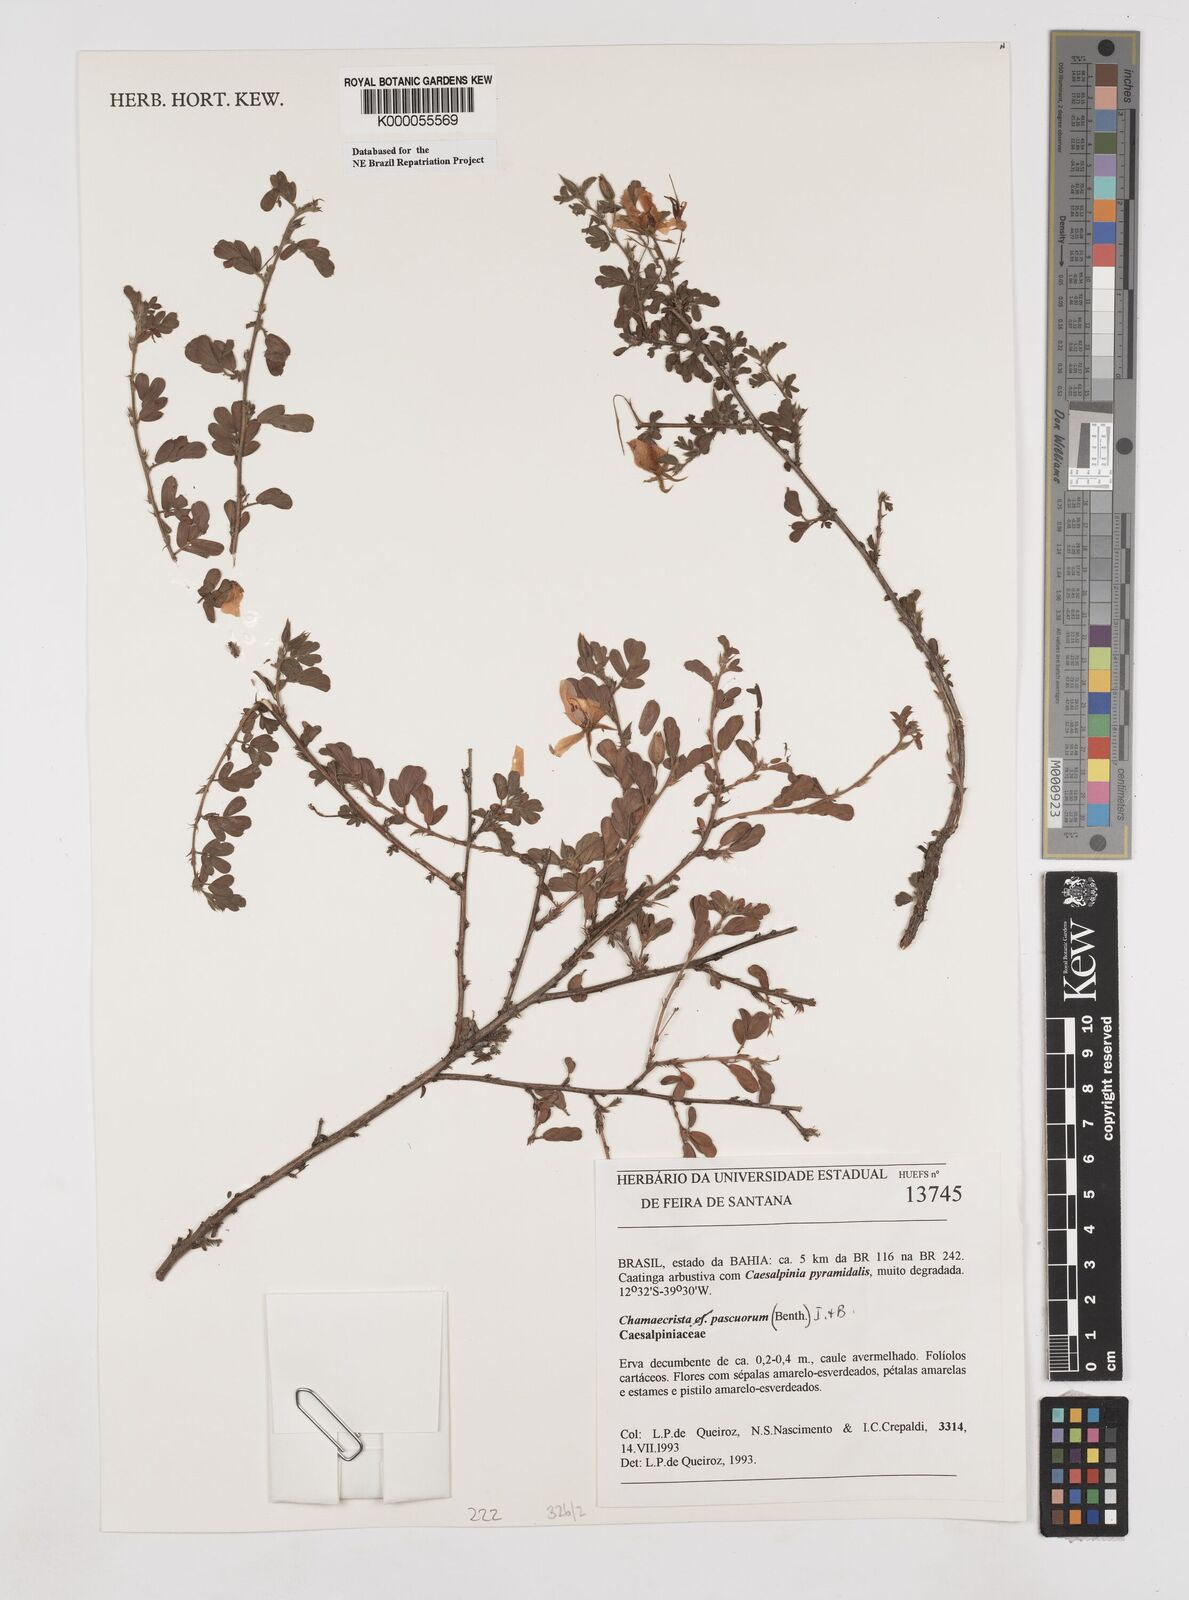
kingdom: Plantae
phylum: Tracheophyta
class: Magnoliopsida
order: Fabales
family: Fabaceae
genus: Chamaecrista
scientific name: Chamaecrista pascuorum
